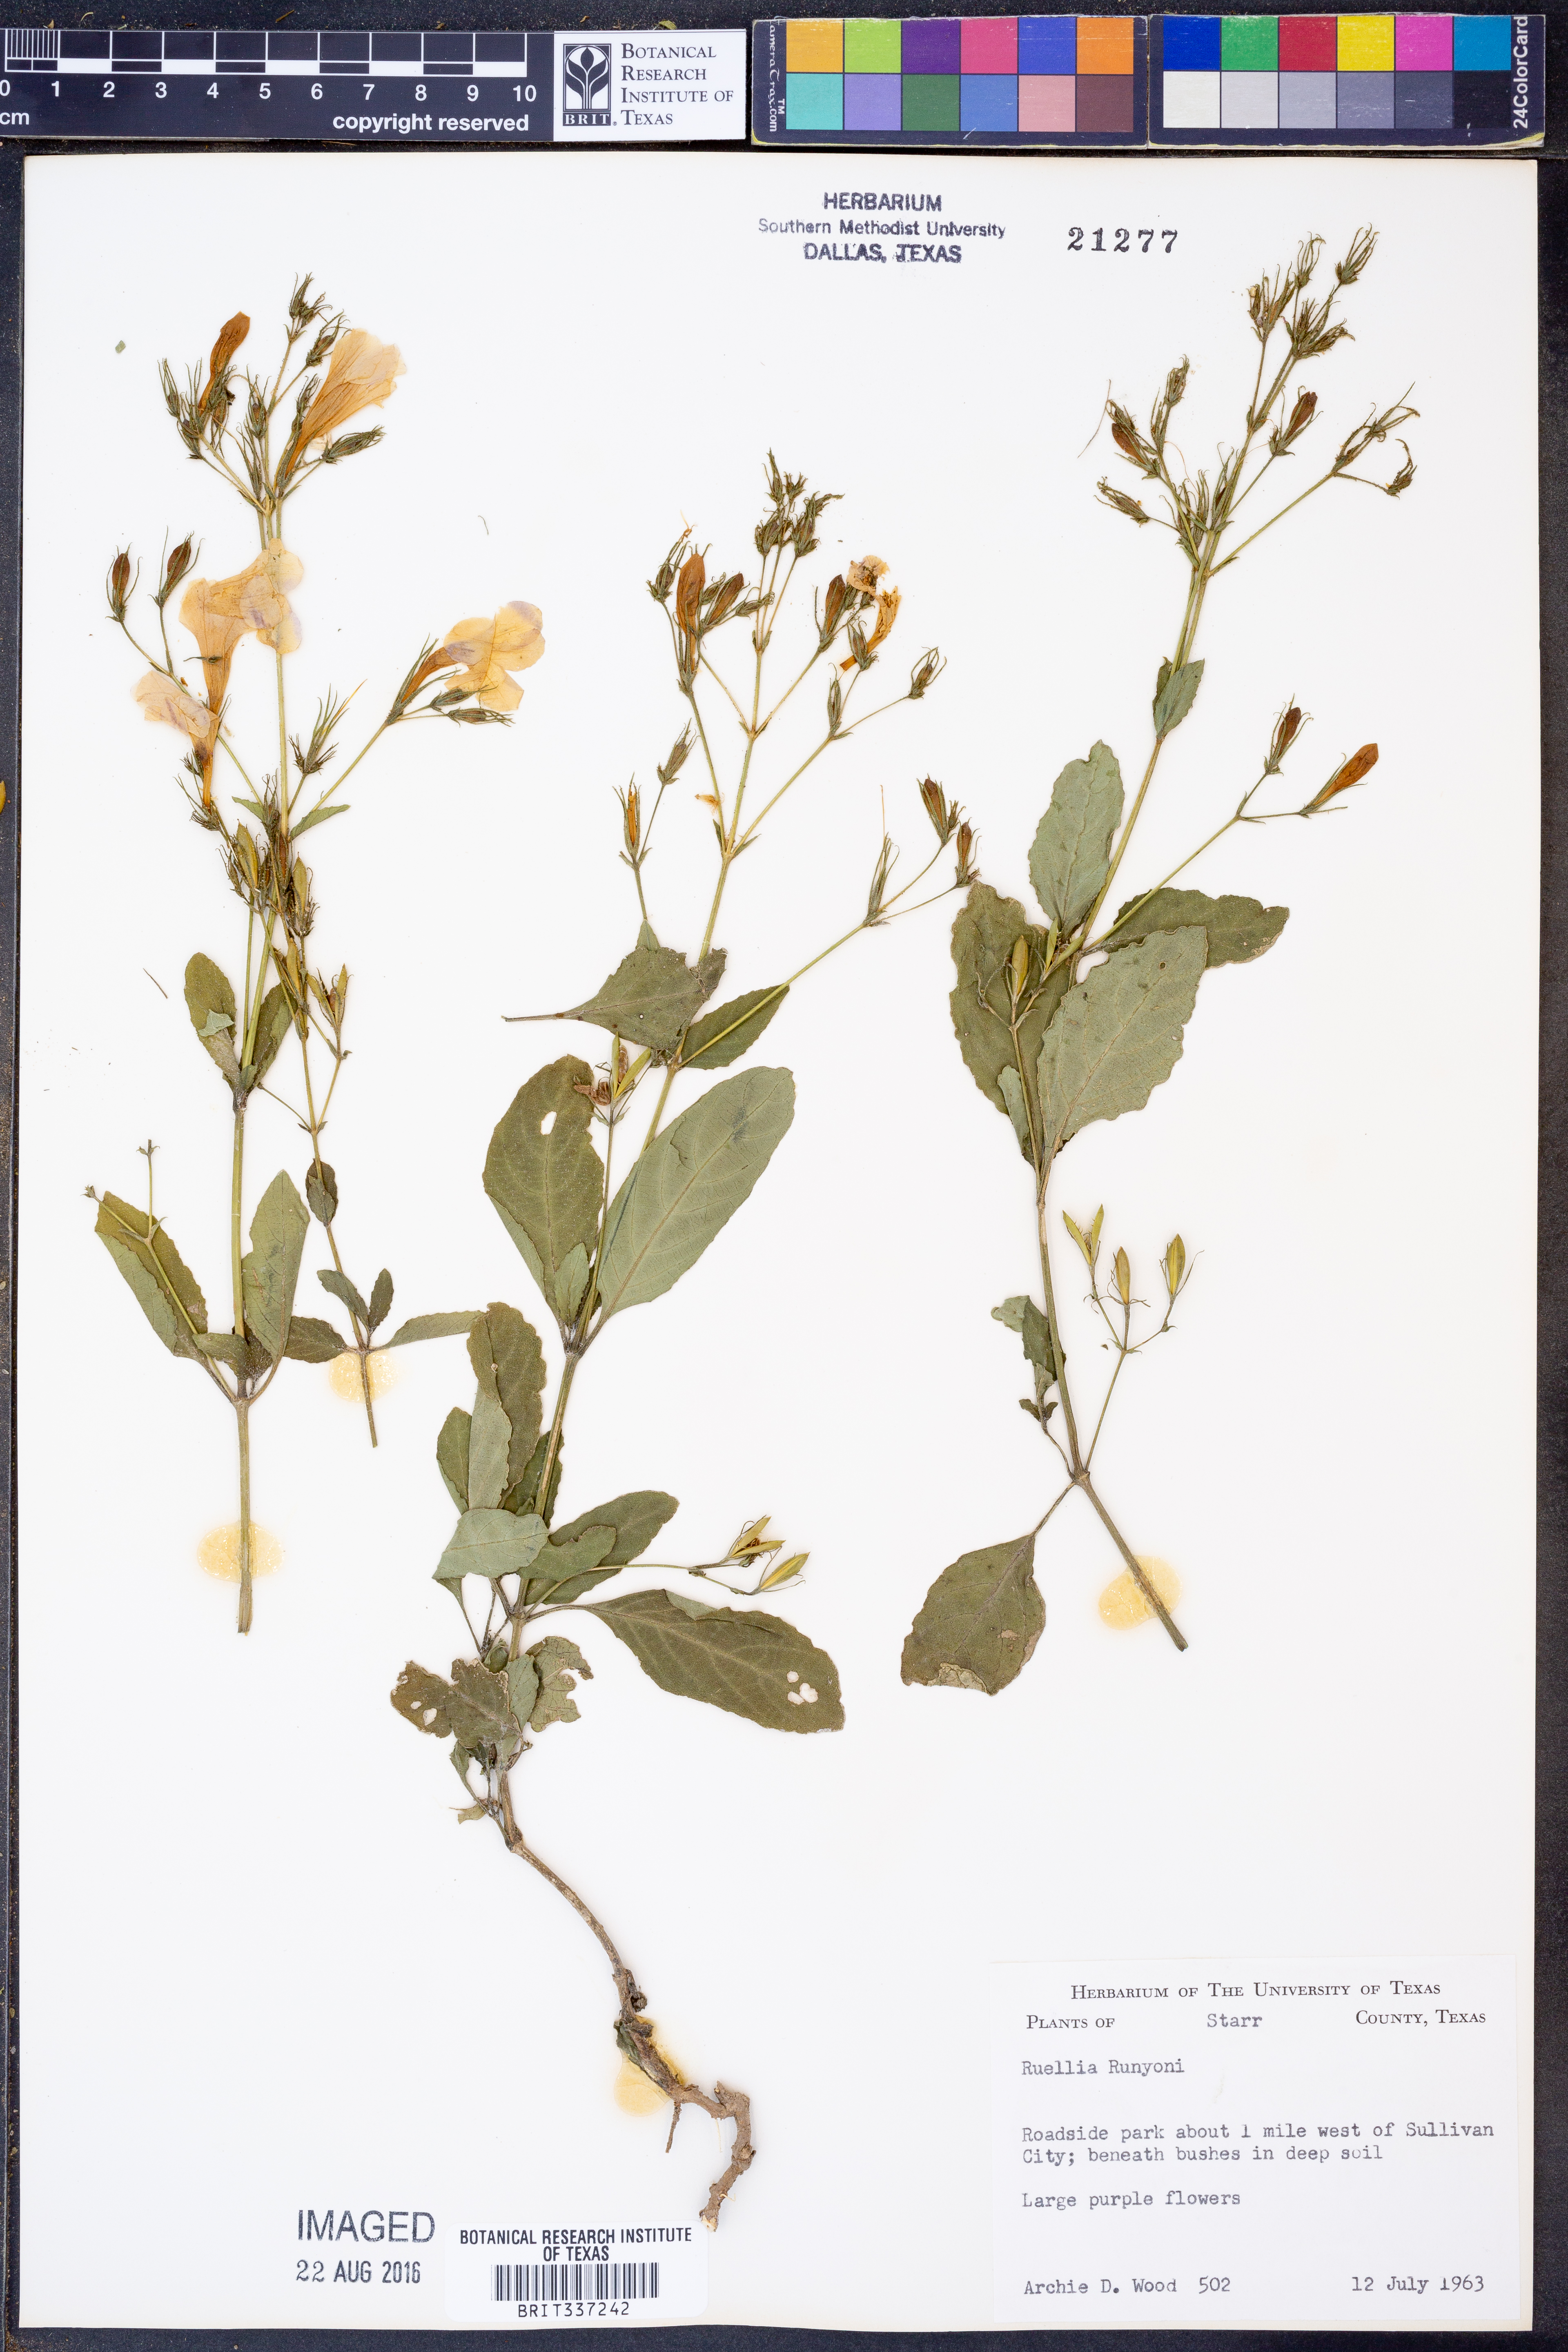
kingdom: Plantae
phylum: Tracheophyta
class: Magnoliopsida
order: Lamiales
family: Acanthaceae
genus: Ruellia
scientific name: Ruellia ciliatiflora
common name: Hairyflower wild petunia
